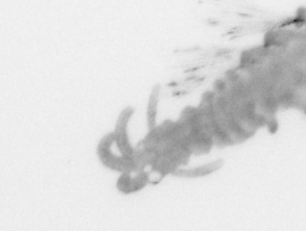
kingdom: Animalia
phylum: Annelida
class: Polychaeta
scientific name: Polychaeta
